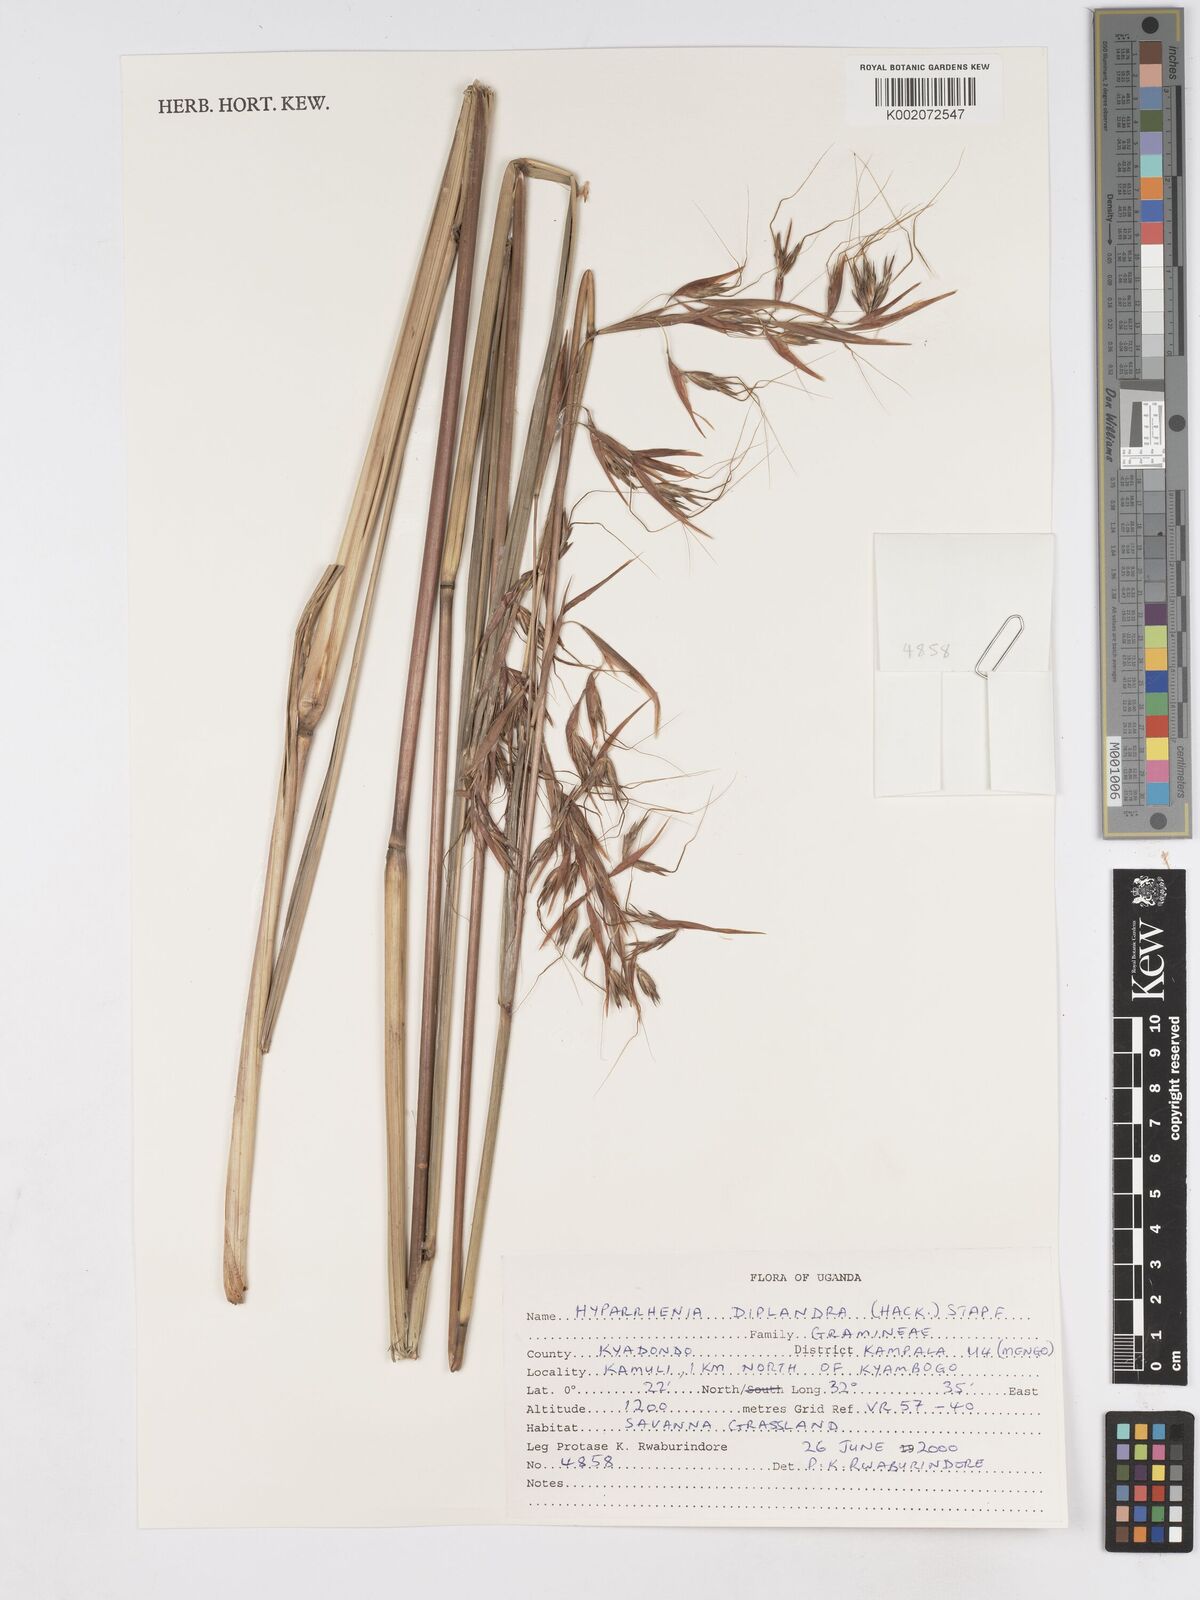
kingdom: Plantae
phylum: Tracheophyta
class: Liliopsida
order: Poales
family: Poaceae
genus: Hyparrhenia
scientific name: Hyparrhenia diplandra
